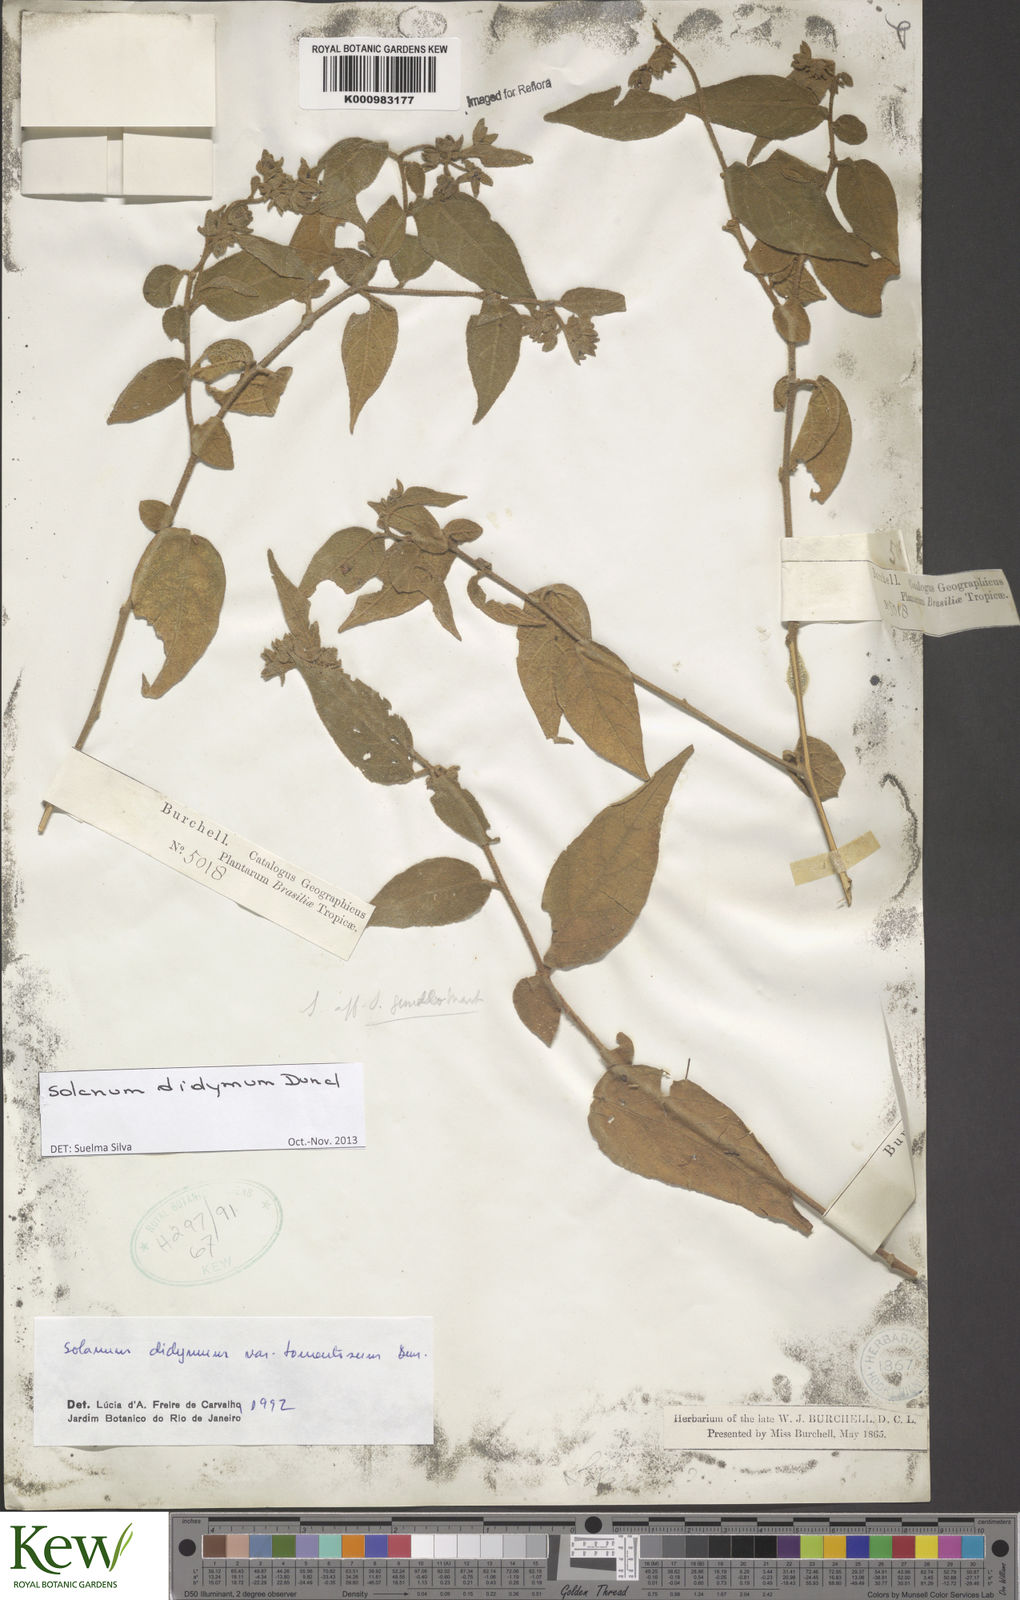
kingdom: Plantae
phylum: Tracheophyta
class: Magnoliopsida
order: Solanales
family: Solanaceae
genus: Solanum
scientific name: Solanum didymum
